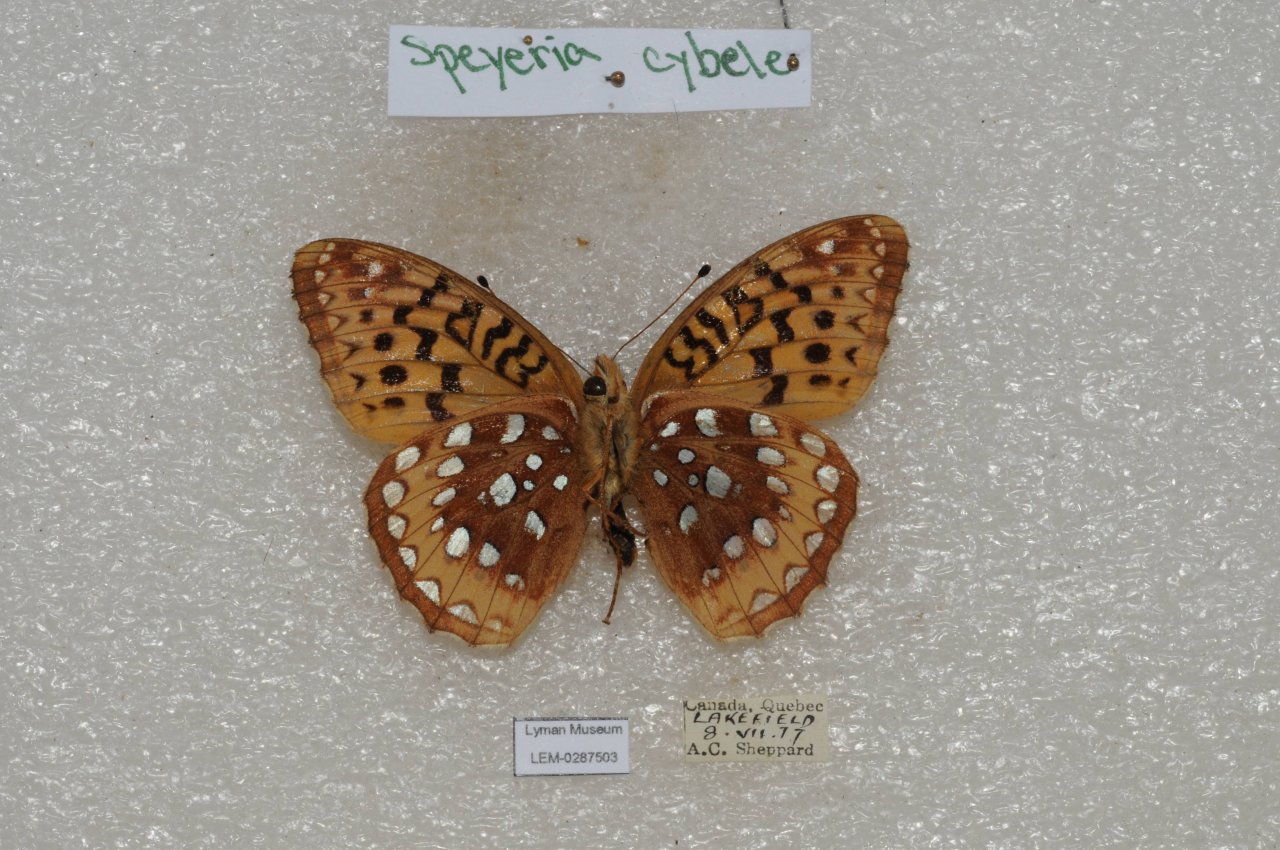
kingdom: Animalia
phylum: Arthropoda
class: Insecta
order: Lepidoptera
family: Nymphalidae
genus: Speyeria
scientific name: Speyeria cybele
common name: Great Spangled Fritillary
